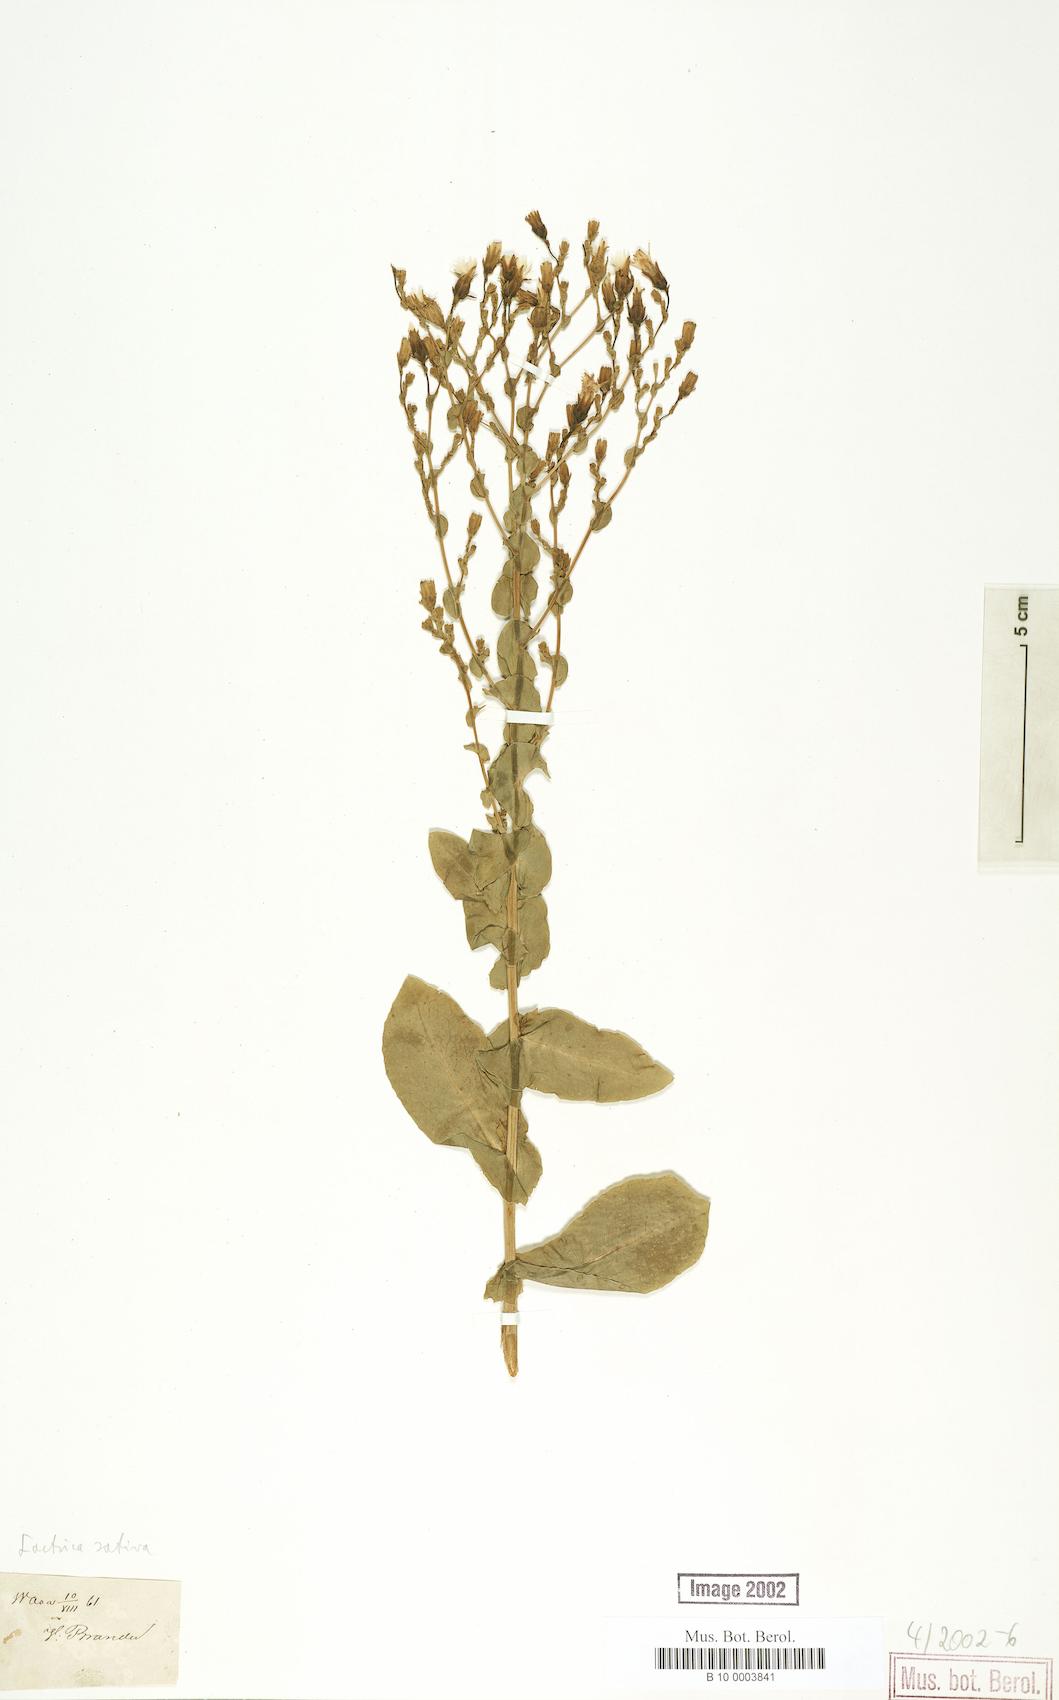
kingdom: Plantae
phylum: Tracheophyta
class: Magnoliopsida
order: Asterales
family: Asteraceae
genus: Lactuca
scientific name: Lactuca sativa
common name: Garden lettuce
